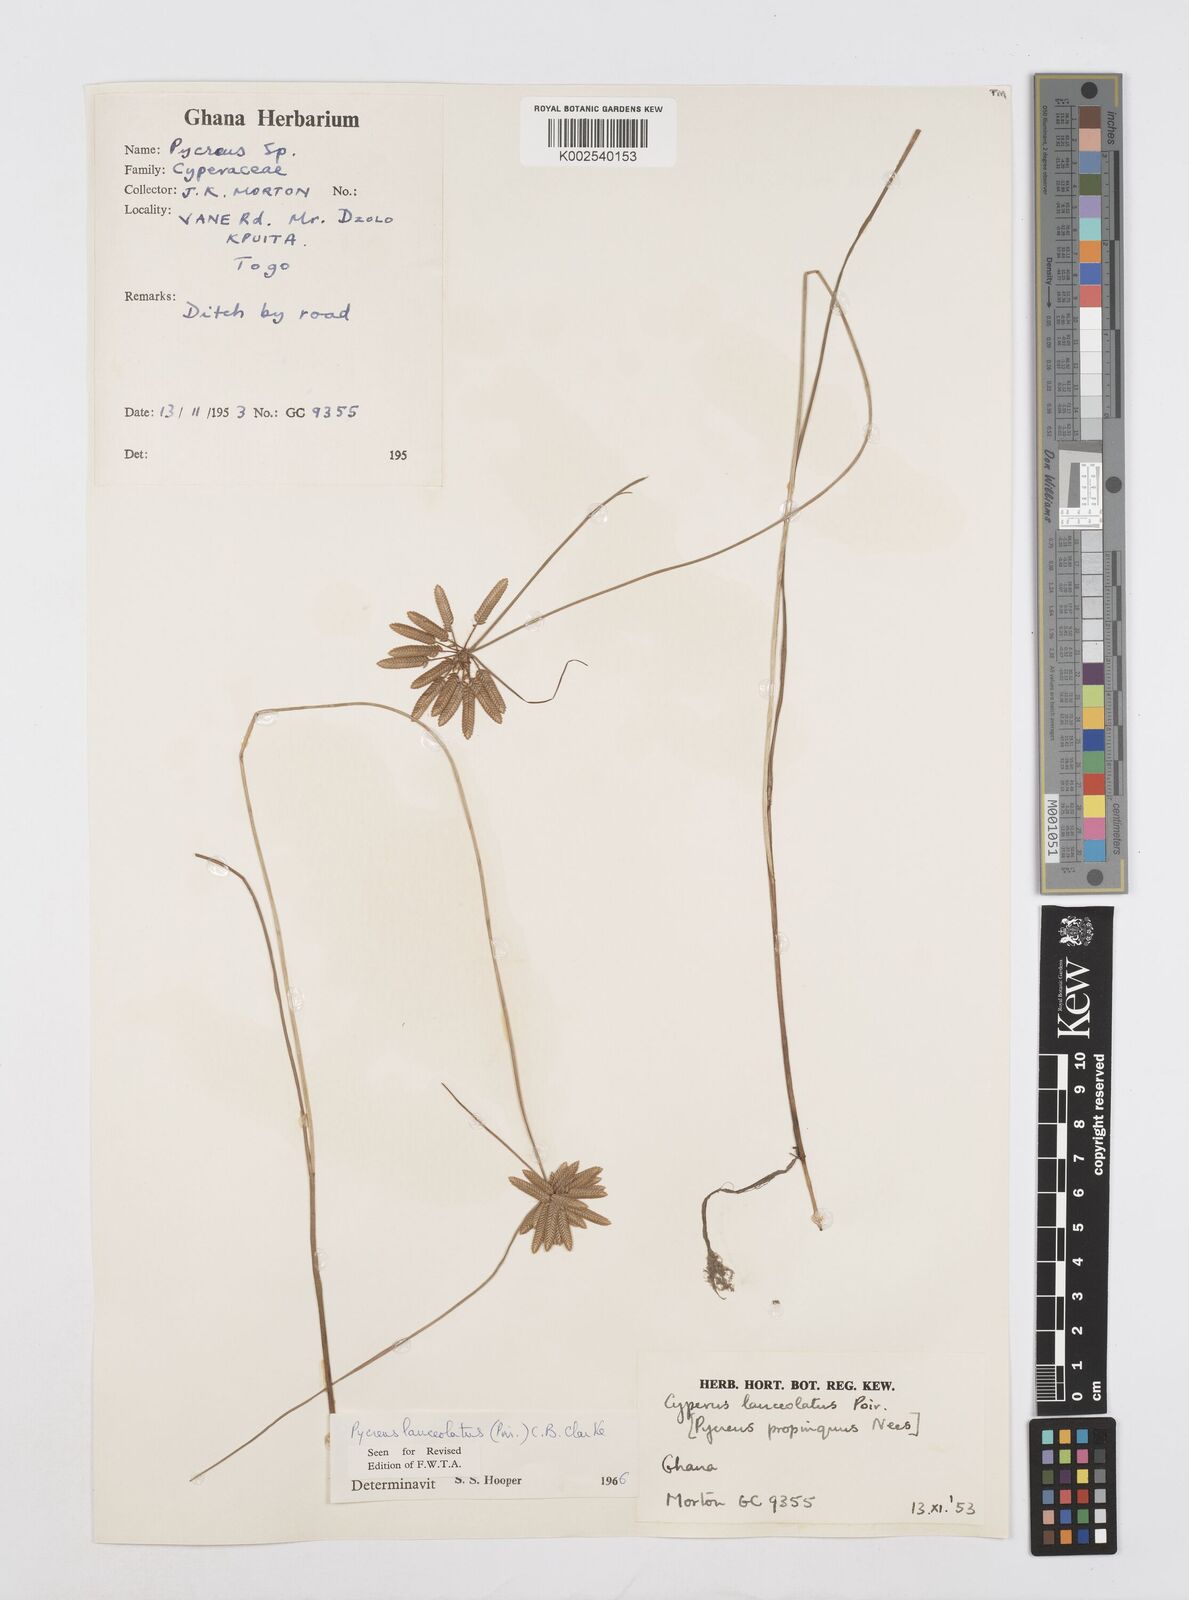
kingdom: Plantae
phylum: Tracheophyta
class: Liliopsida
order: Poales
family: Cyperaceae
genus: Cyperus
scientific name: Cyperus
